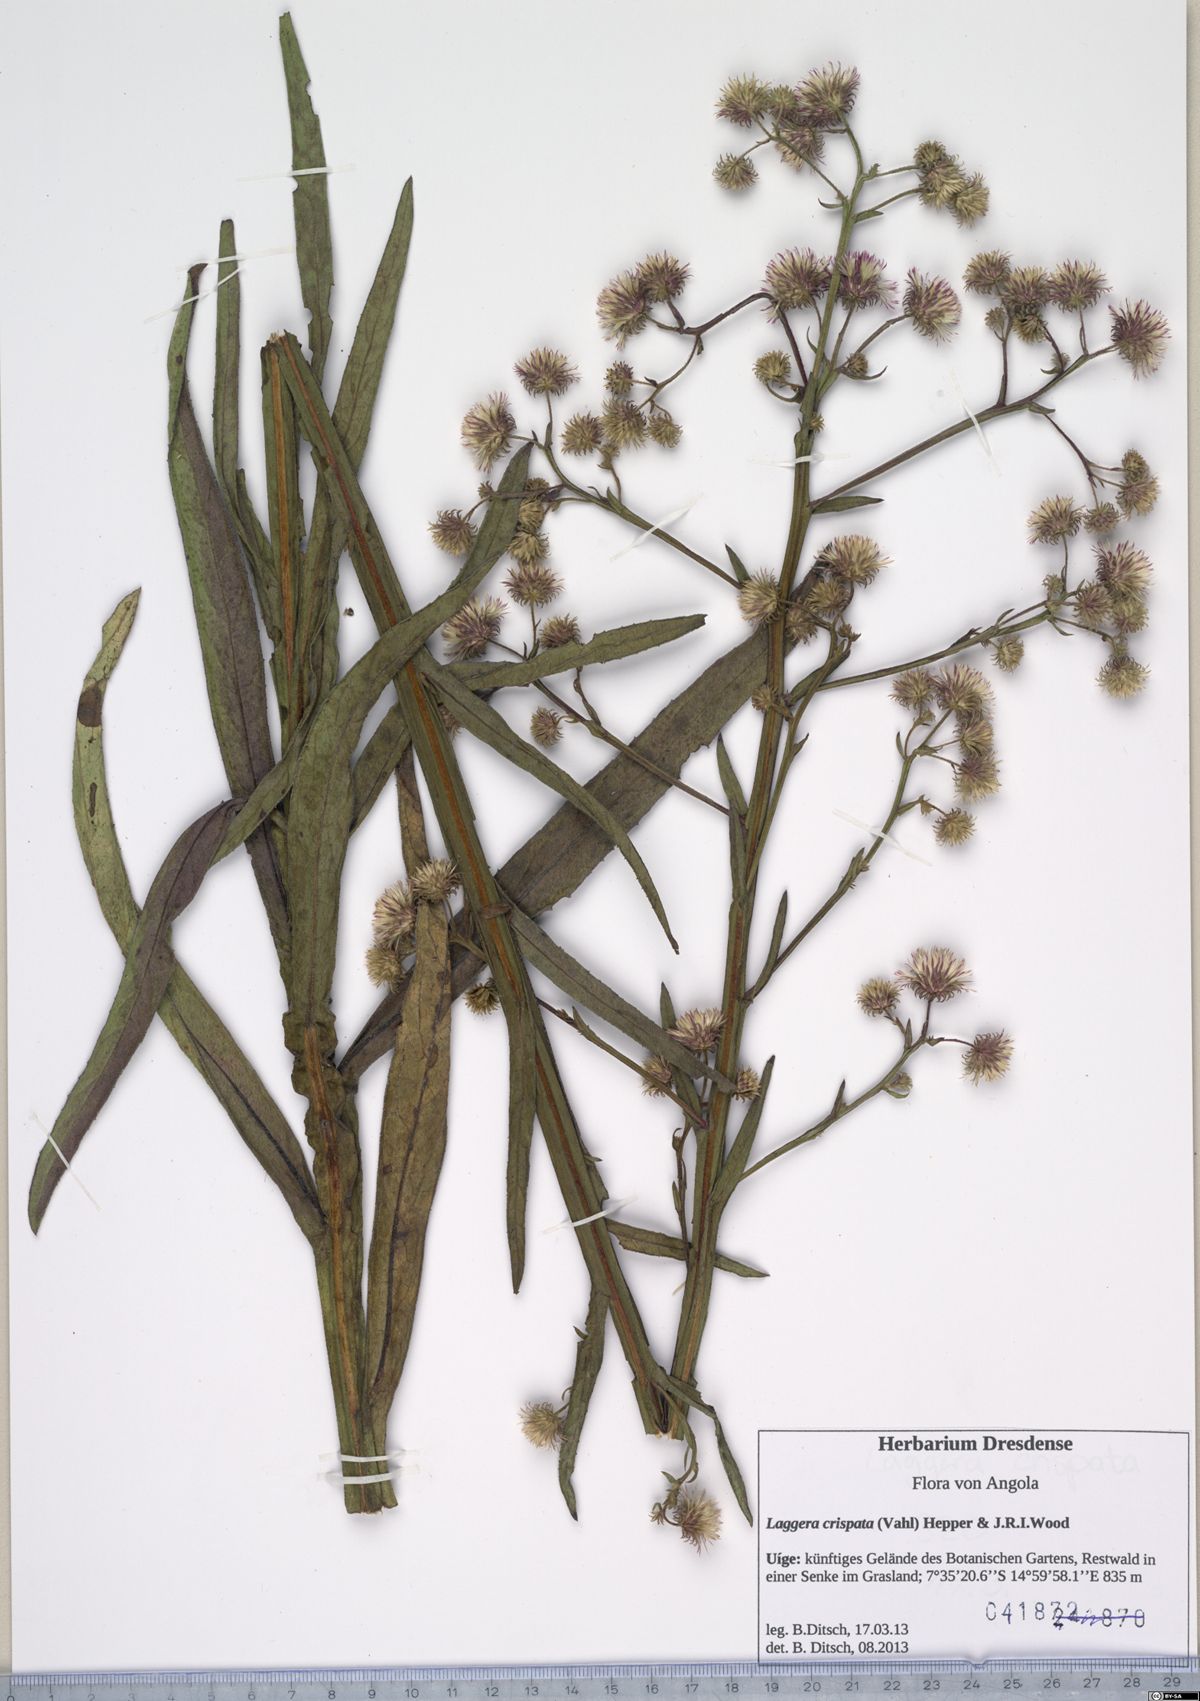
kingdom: Plantae
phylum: Tracheophyta
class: Magnoliopsida
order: Asterales
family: Asteraceae
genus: Laggera
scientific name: Laggera crispata
